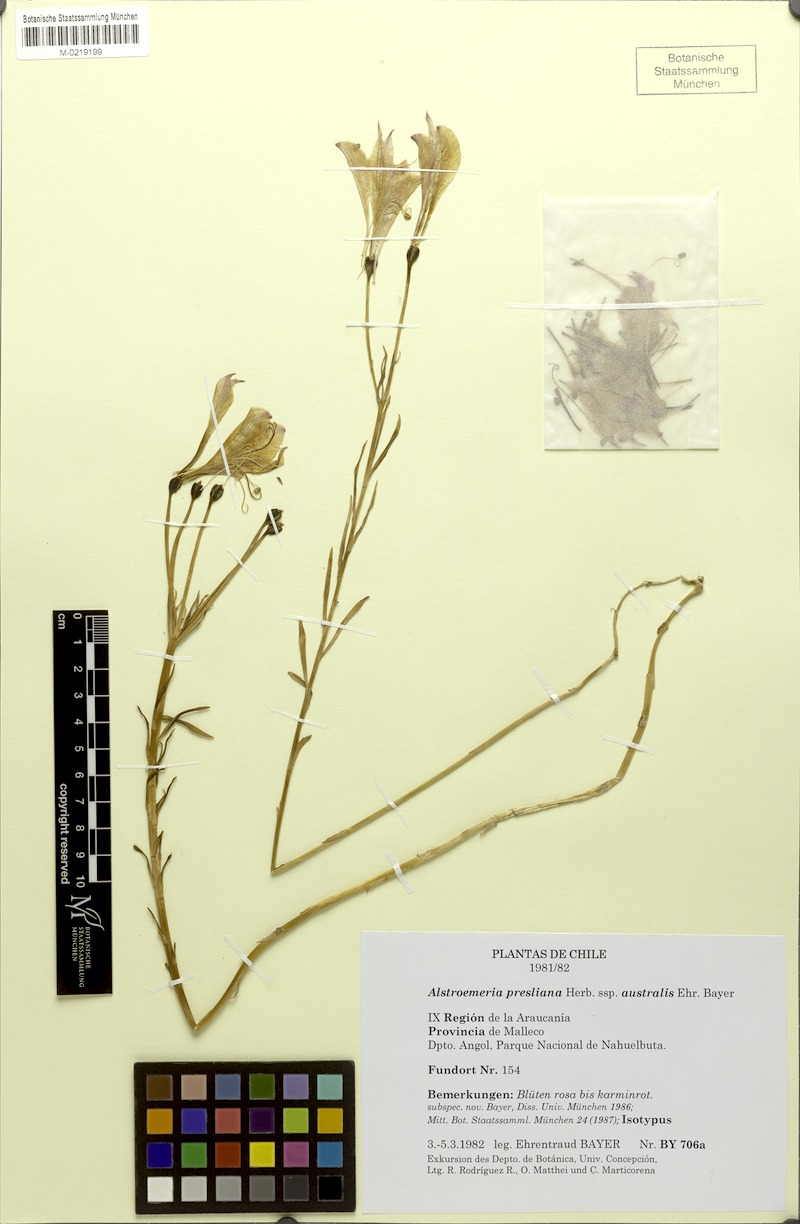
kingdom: Plantae
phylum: Tracheophyta
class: Liliopsida
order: Liliales
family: Alstroemeriaceae
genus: Alstroemeria
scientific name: Alstroemeria presliana
